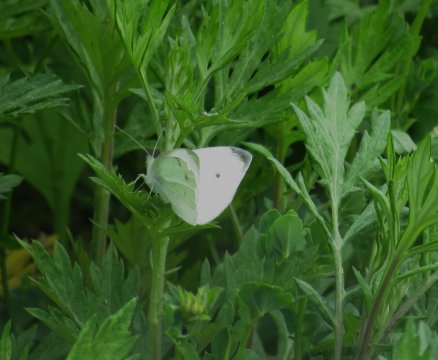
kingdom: Animalia
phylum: Arthropoda
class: Insecta
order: Lepidoptera
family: Pieridae
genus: Pieris
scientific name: Pieris rapae
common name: Cabbage White
